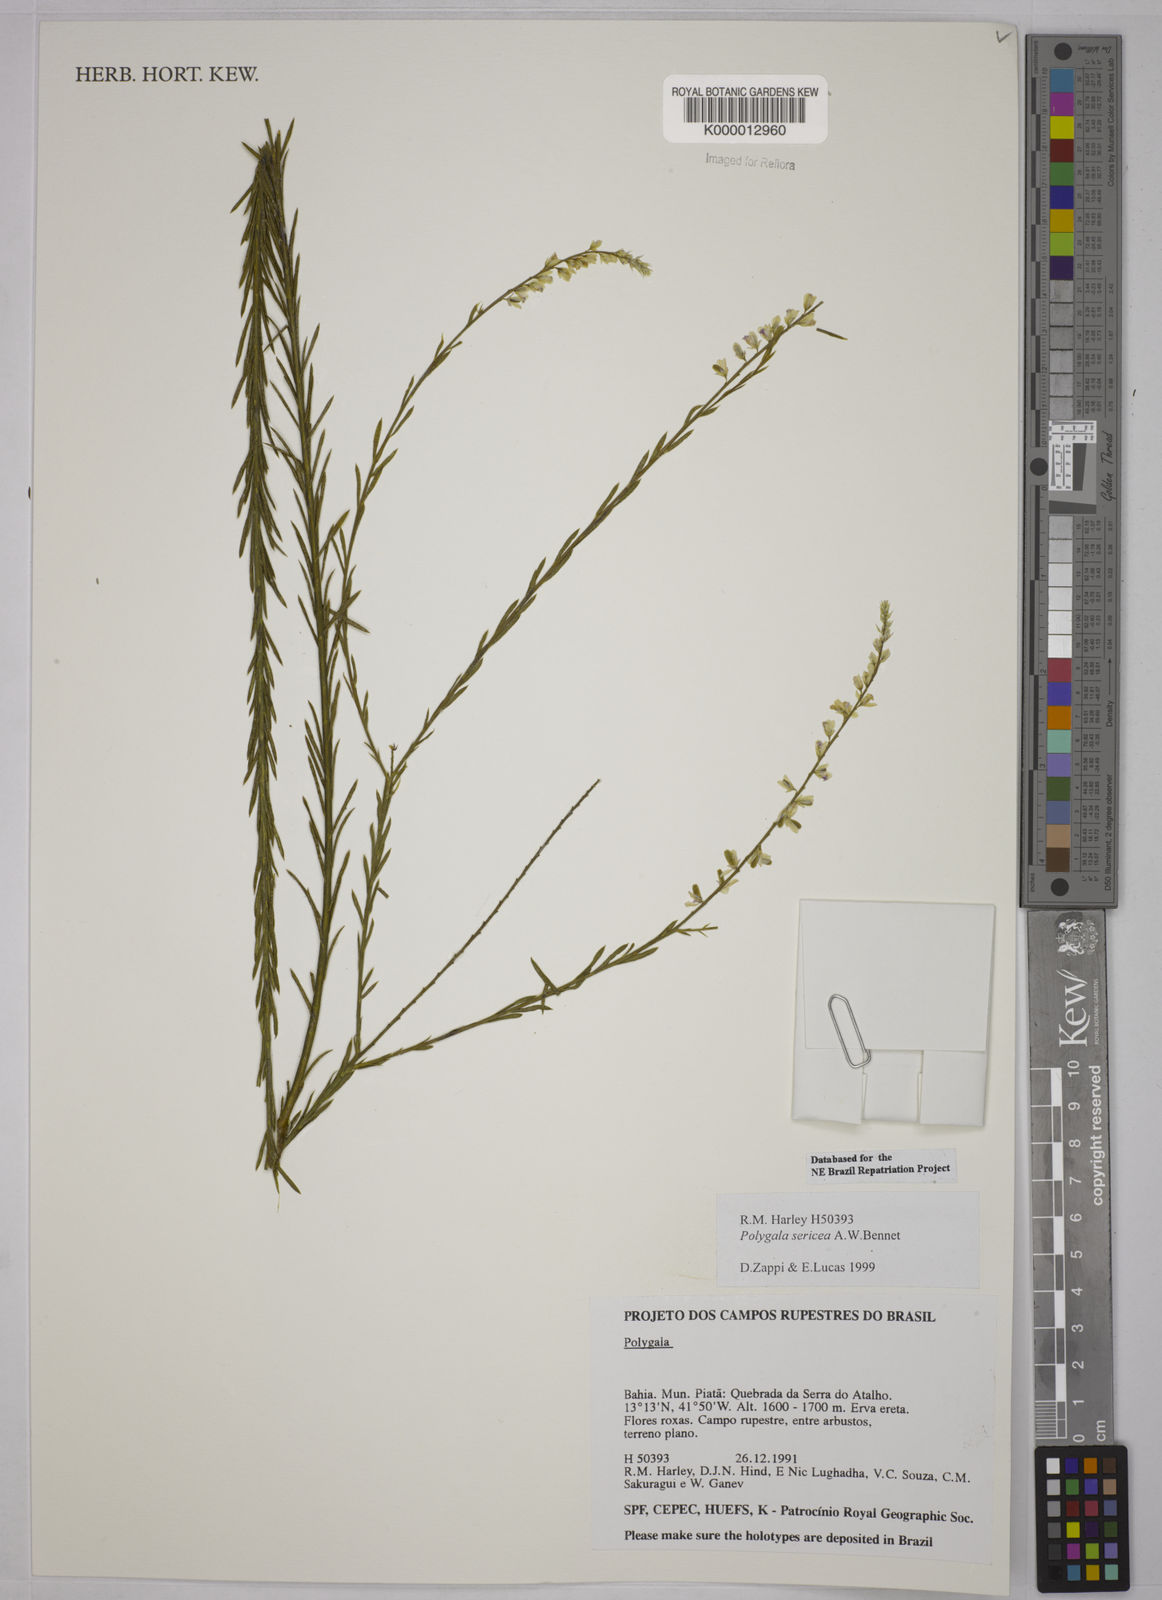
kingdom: Plantae
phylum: Tracheophyta
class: Magnoliopsida
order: Fabales
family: Polygalaceae
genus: Polygala
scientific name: Polygala sericea
